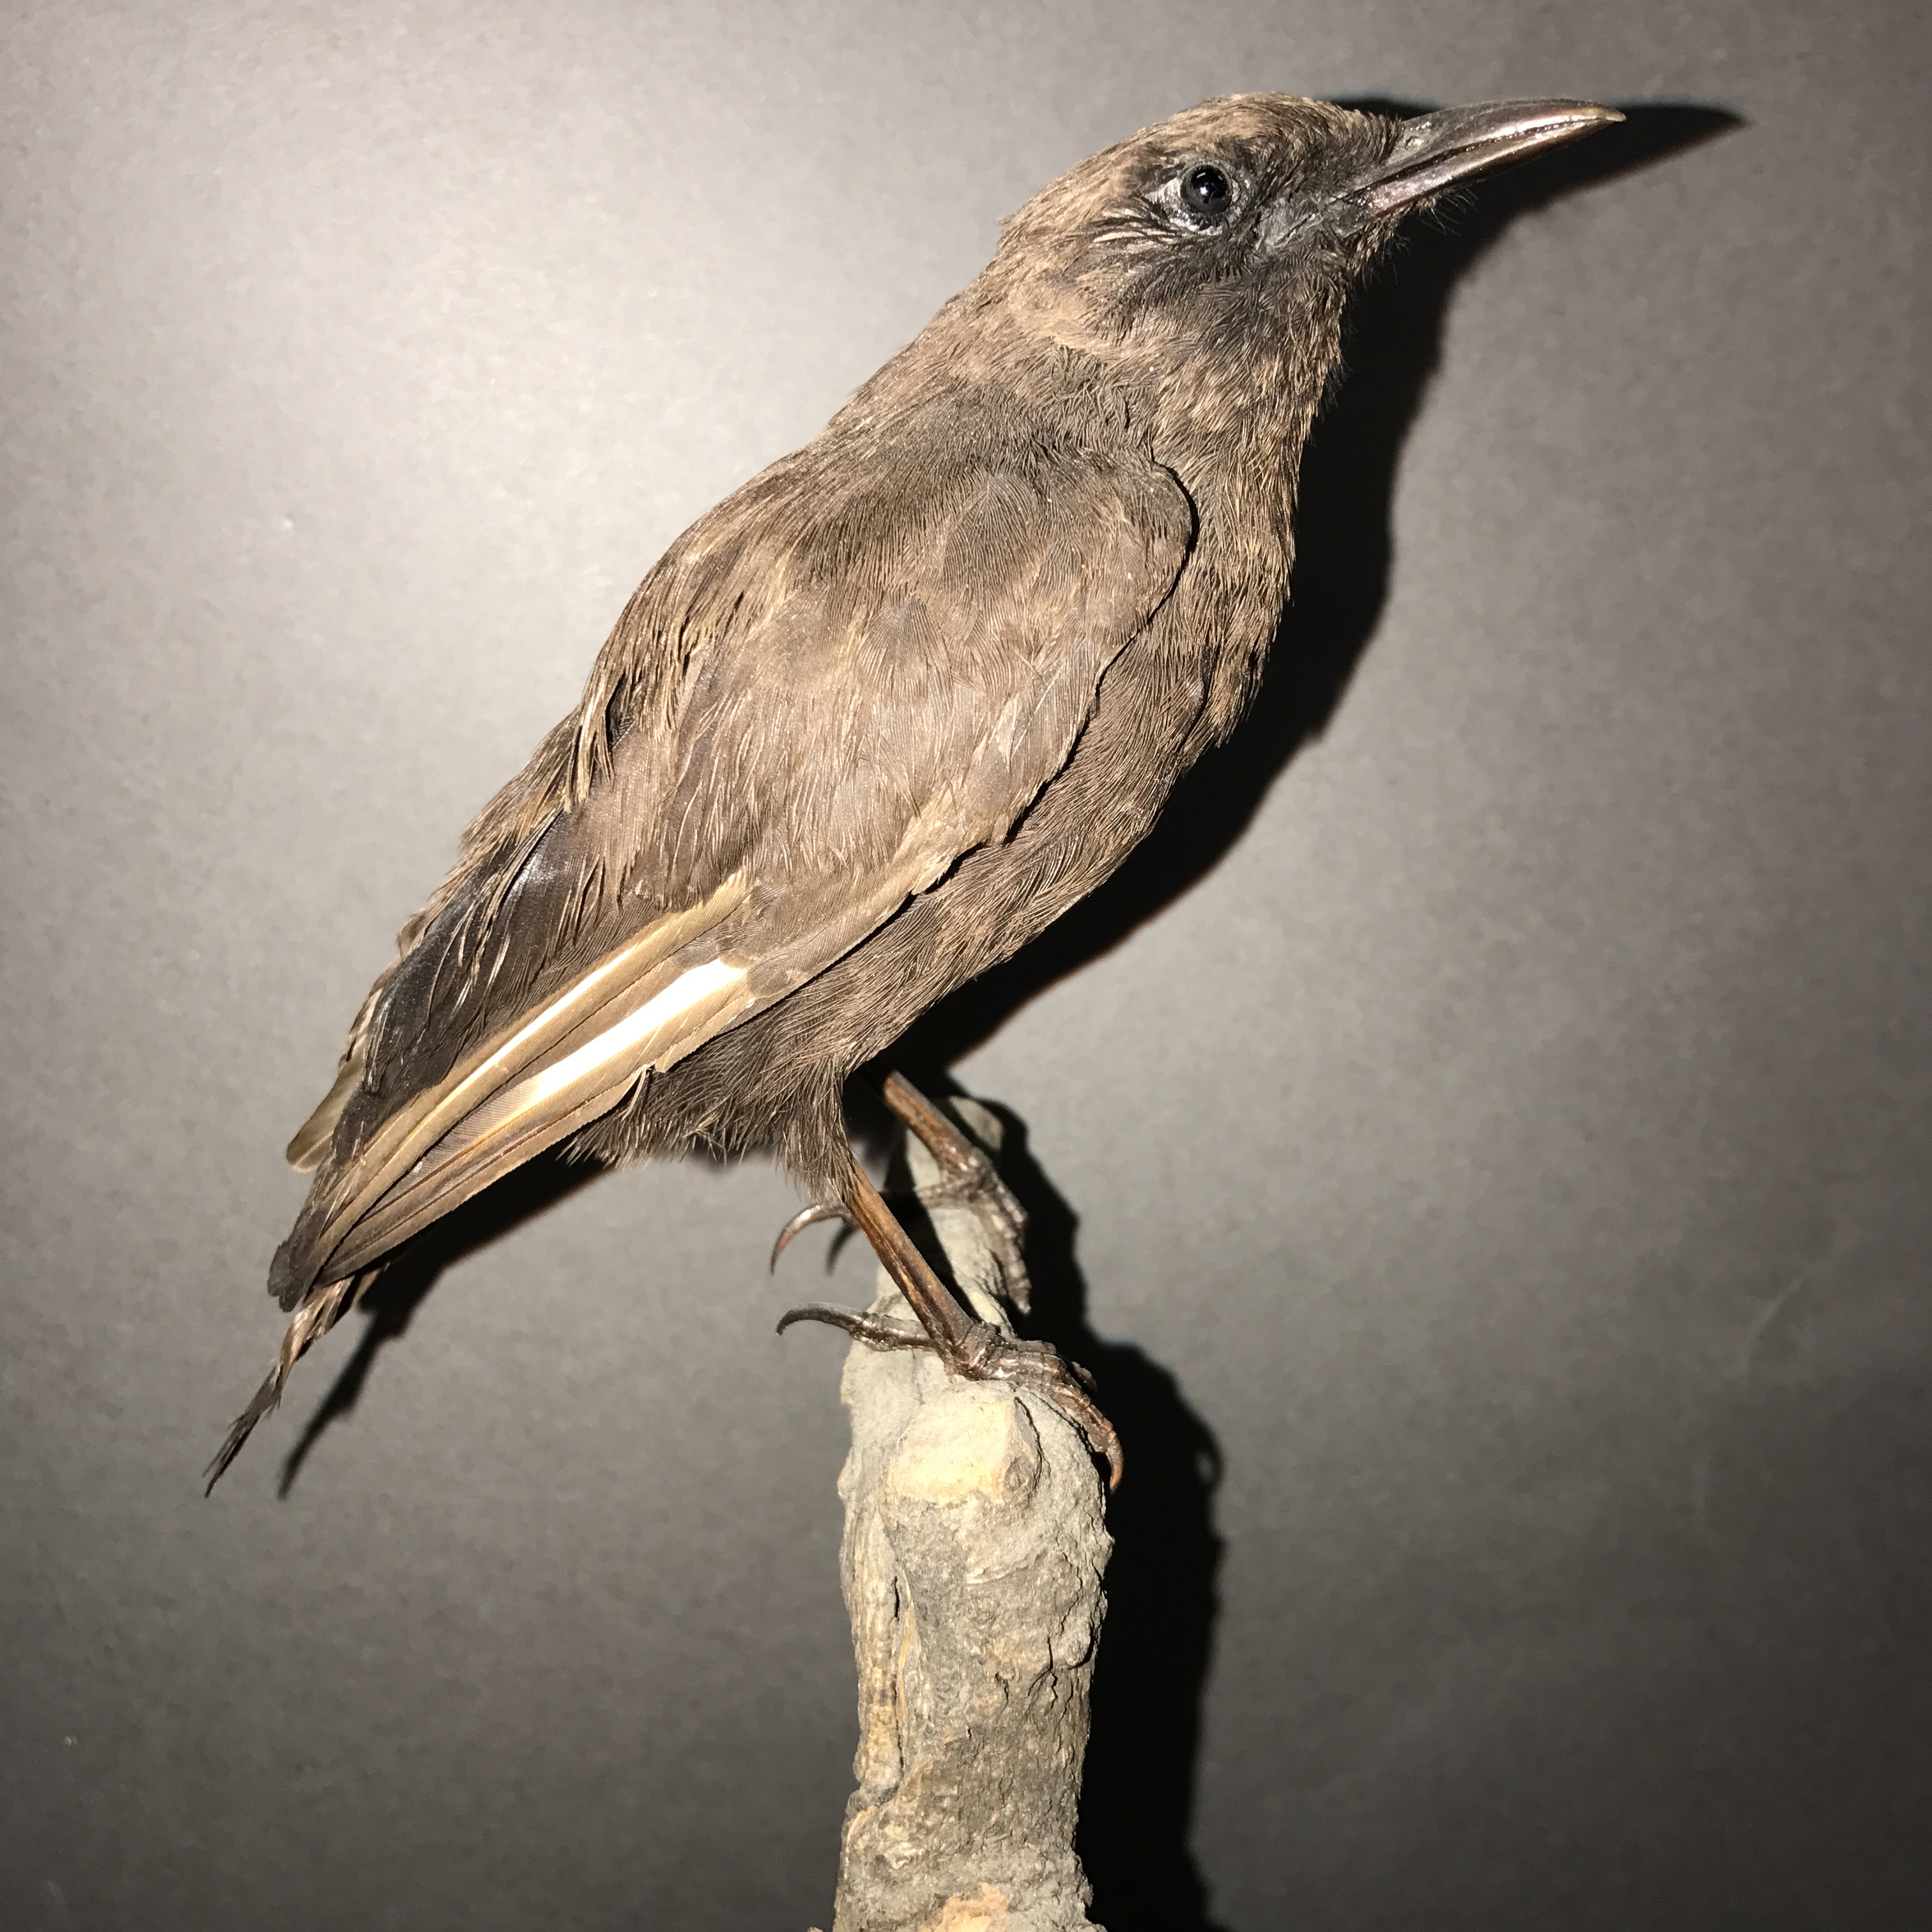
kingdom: Animalia
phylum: Chordata
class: Aves
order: Passeriformes
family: Muscicapidae
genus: Myrmecocichla
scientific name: Myrmecocichla aethiops
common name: Anteater chat
